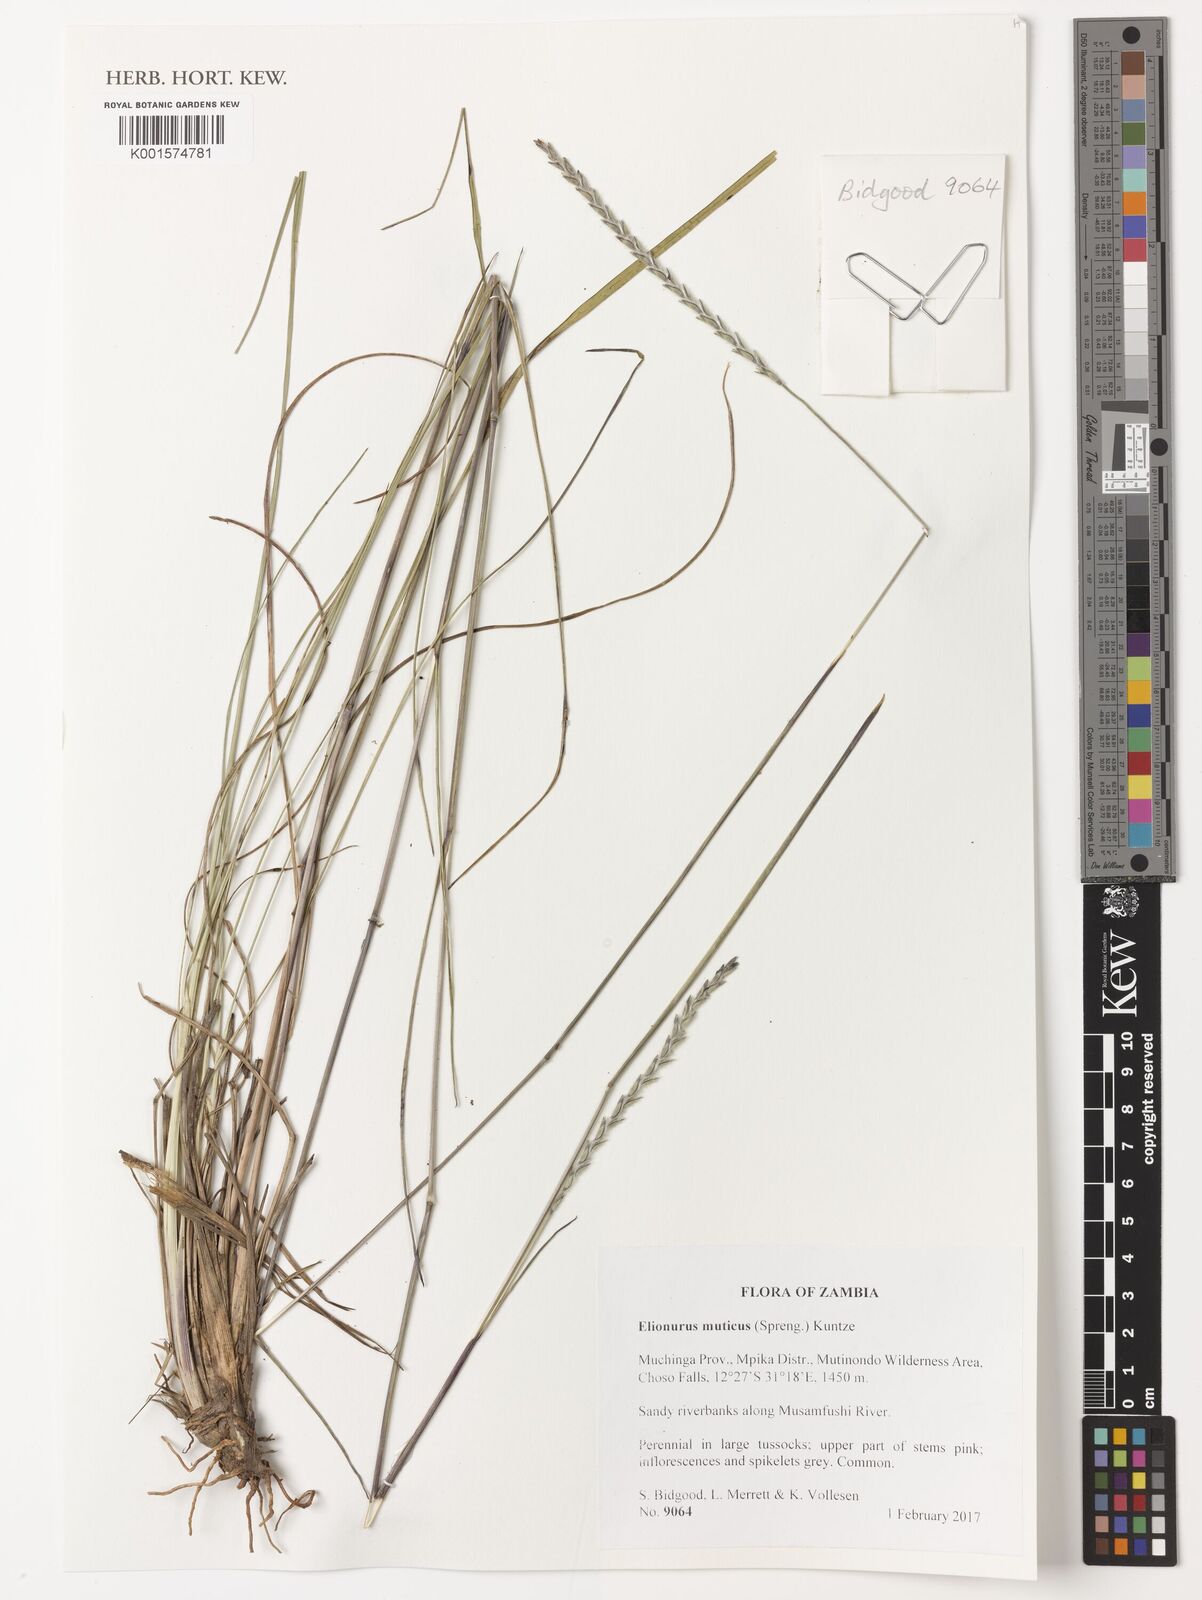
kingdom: Plantae
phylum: Tracheophyta
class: Liliopsida
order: Poales
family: Poaceae
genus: Elionurus
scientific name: Elionurus muticus
